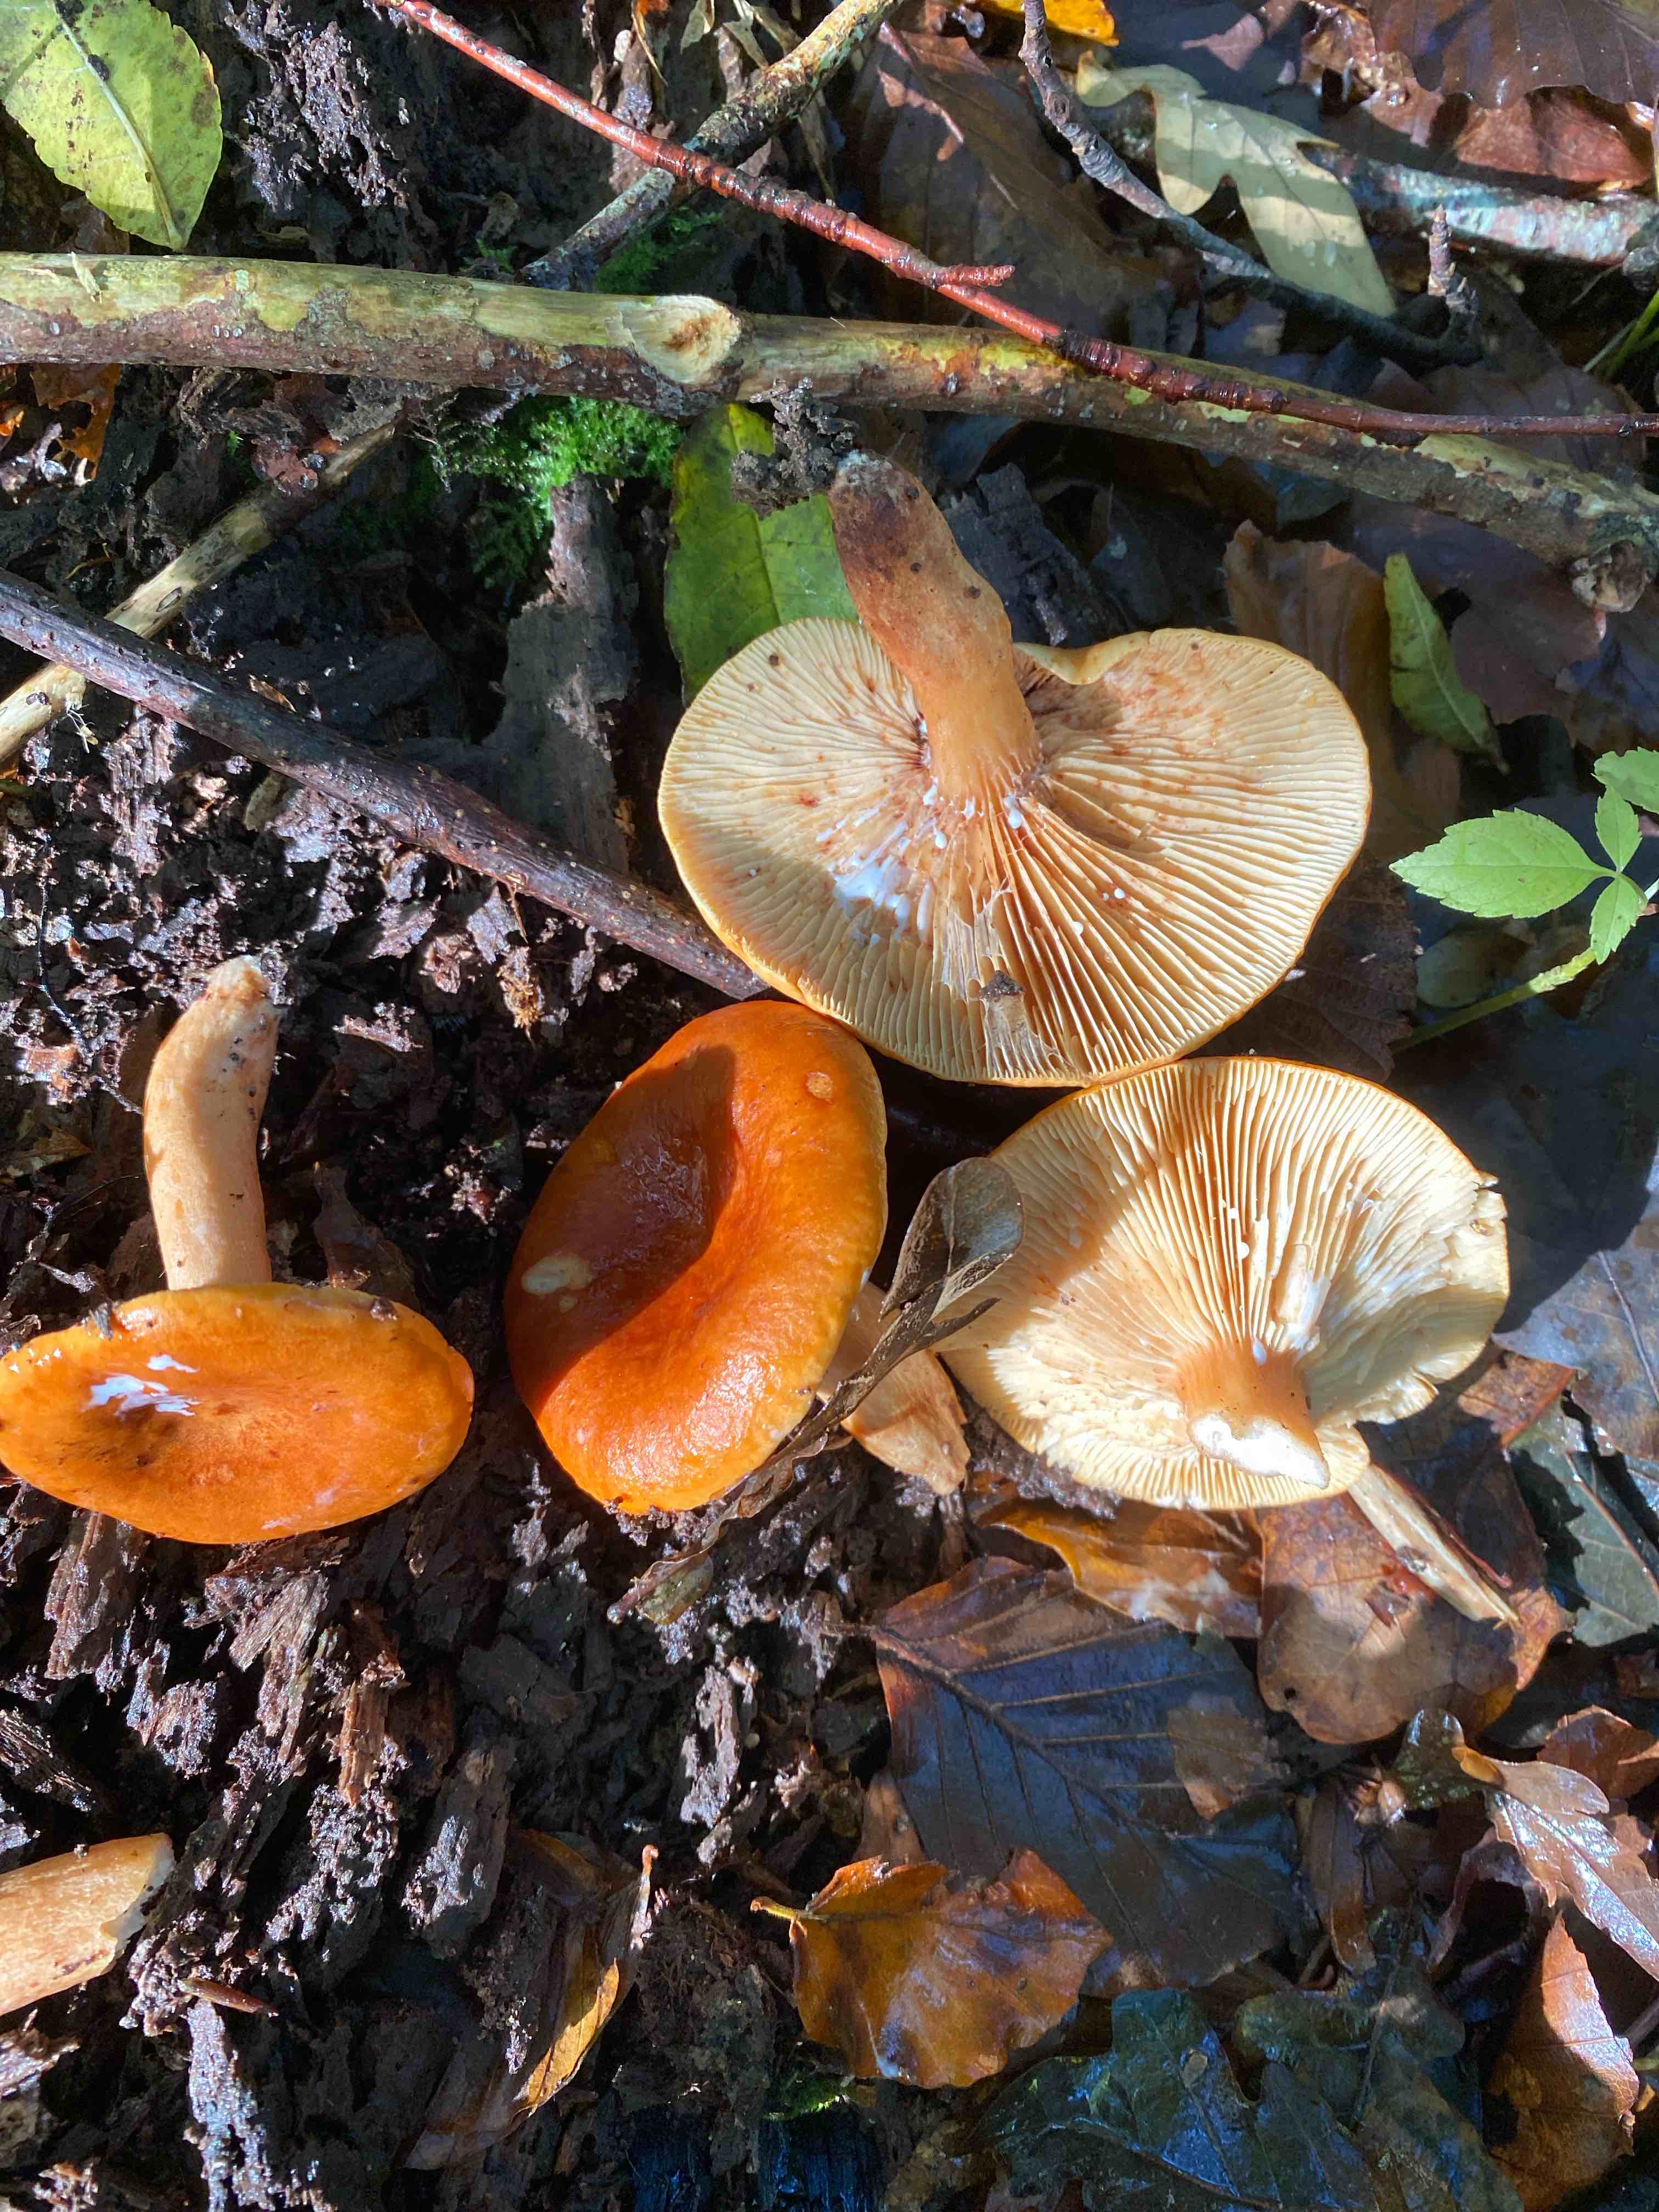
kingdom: Fungi
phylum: Basidiomycota
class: Agaricomycetes
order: Russulales
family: Russulaceae
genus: Lactarius
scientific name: Lactarius aurantiacus
